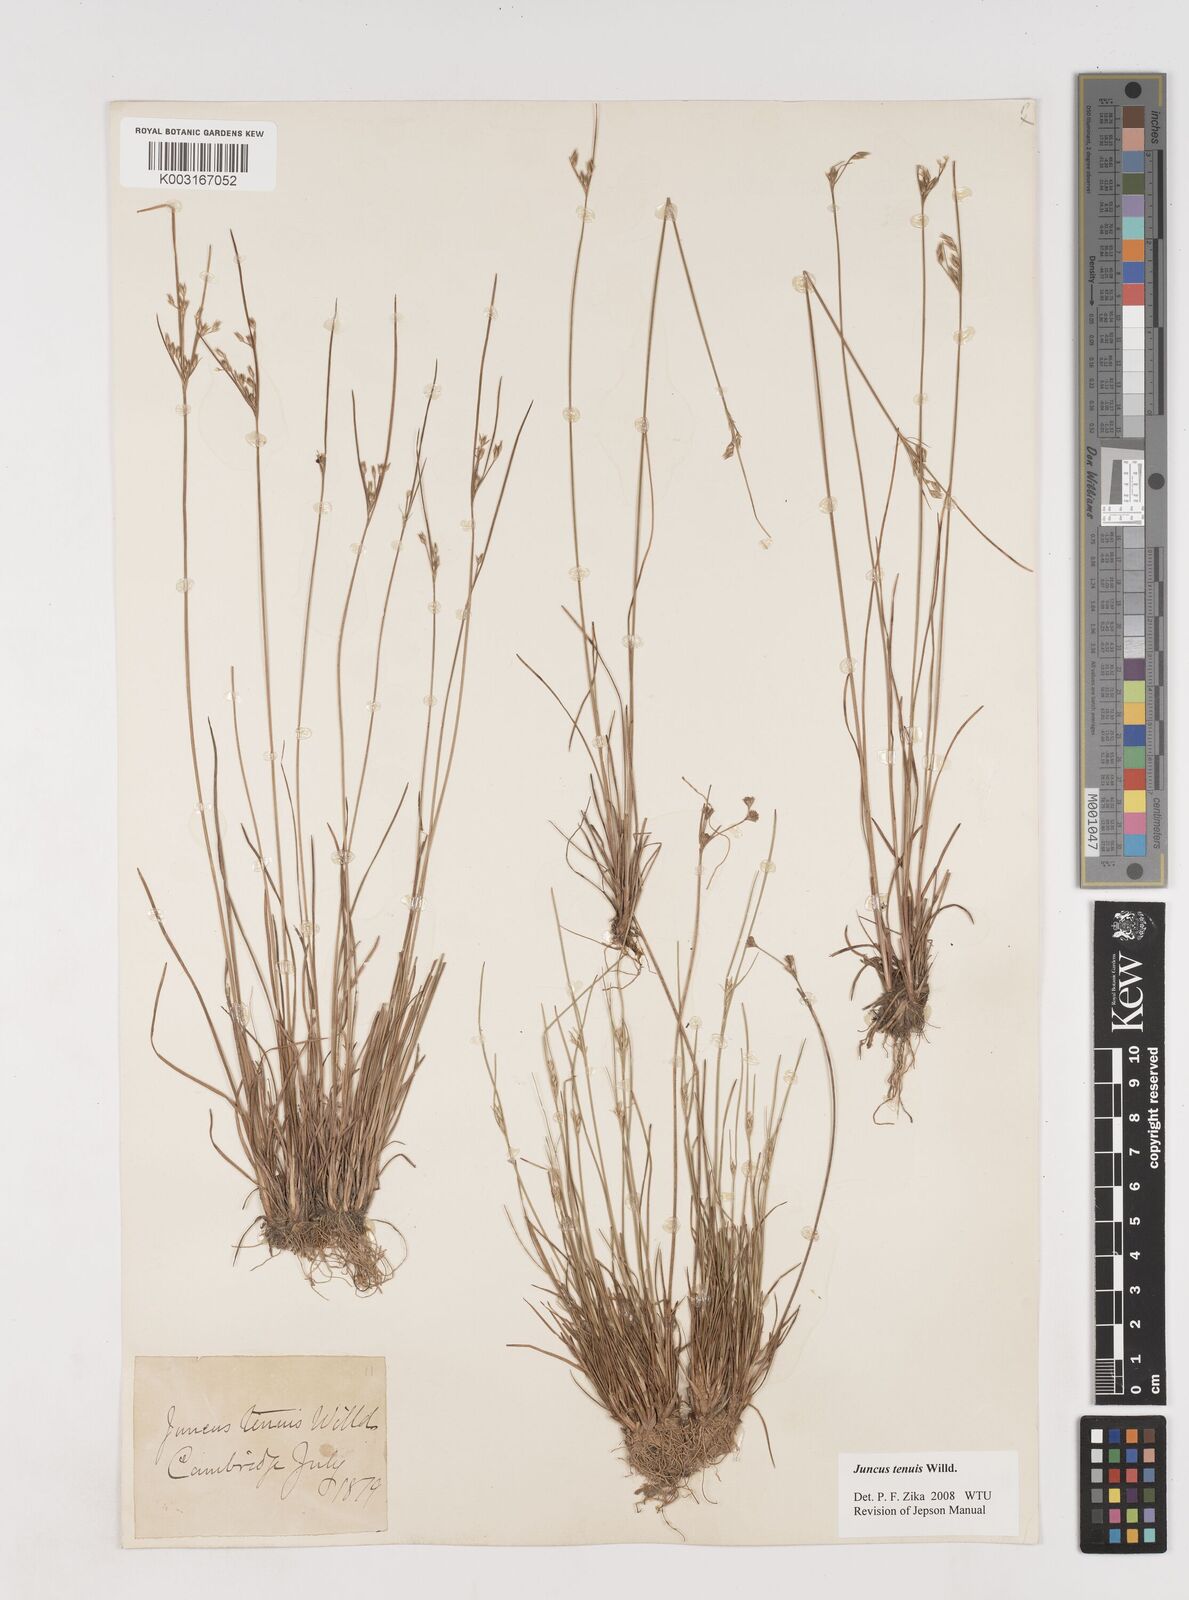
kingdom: Plantae
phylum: Tracheophyta
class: Liliopsida
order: Poales
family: Juncaceae
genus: Juncus
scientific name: Juncus tenuis
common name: Slender rush
